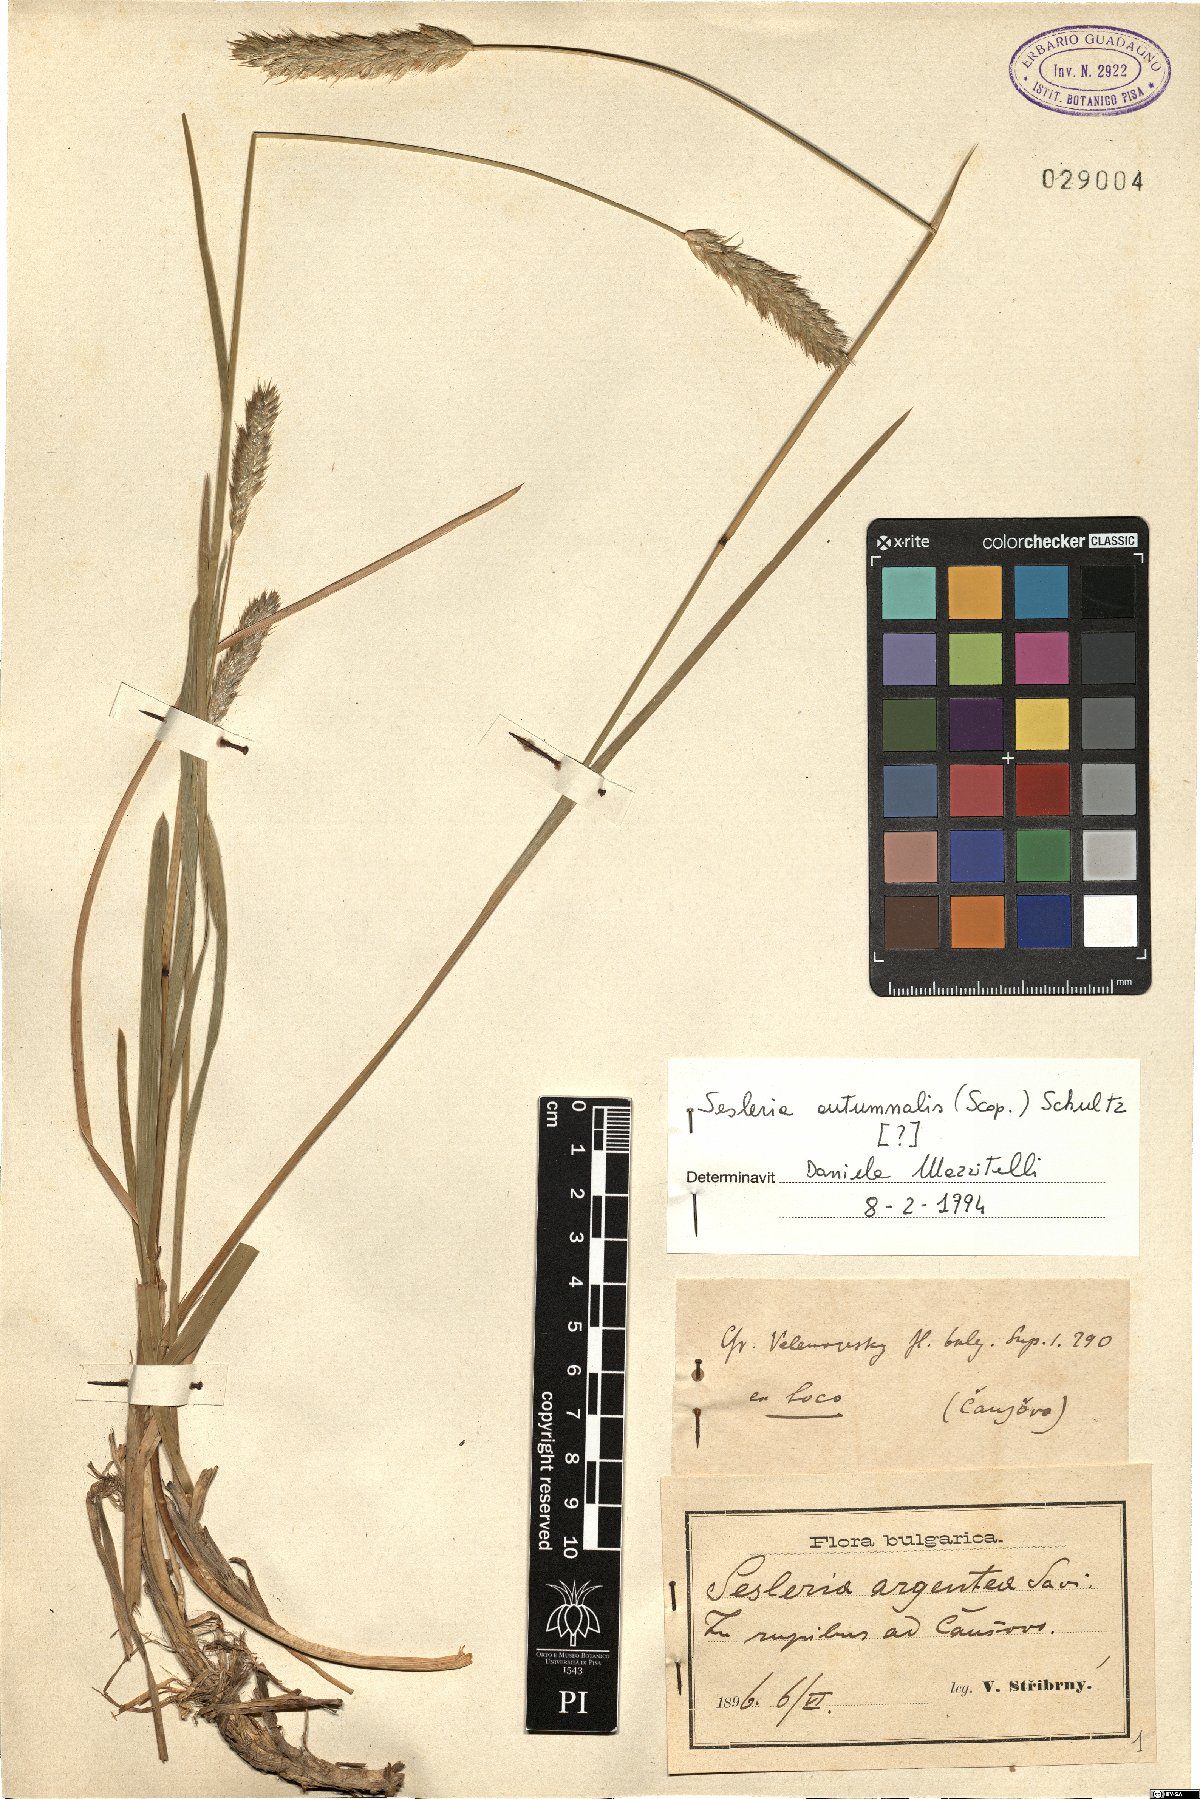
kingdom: Plantae
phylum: Tracheophyta
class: Liliopsida
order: Poales
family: Poaceae
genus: Sesleria
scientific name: Sesleria autumnalis
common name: Autumn moor grass
